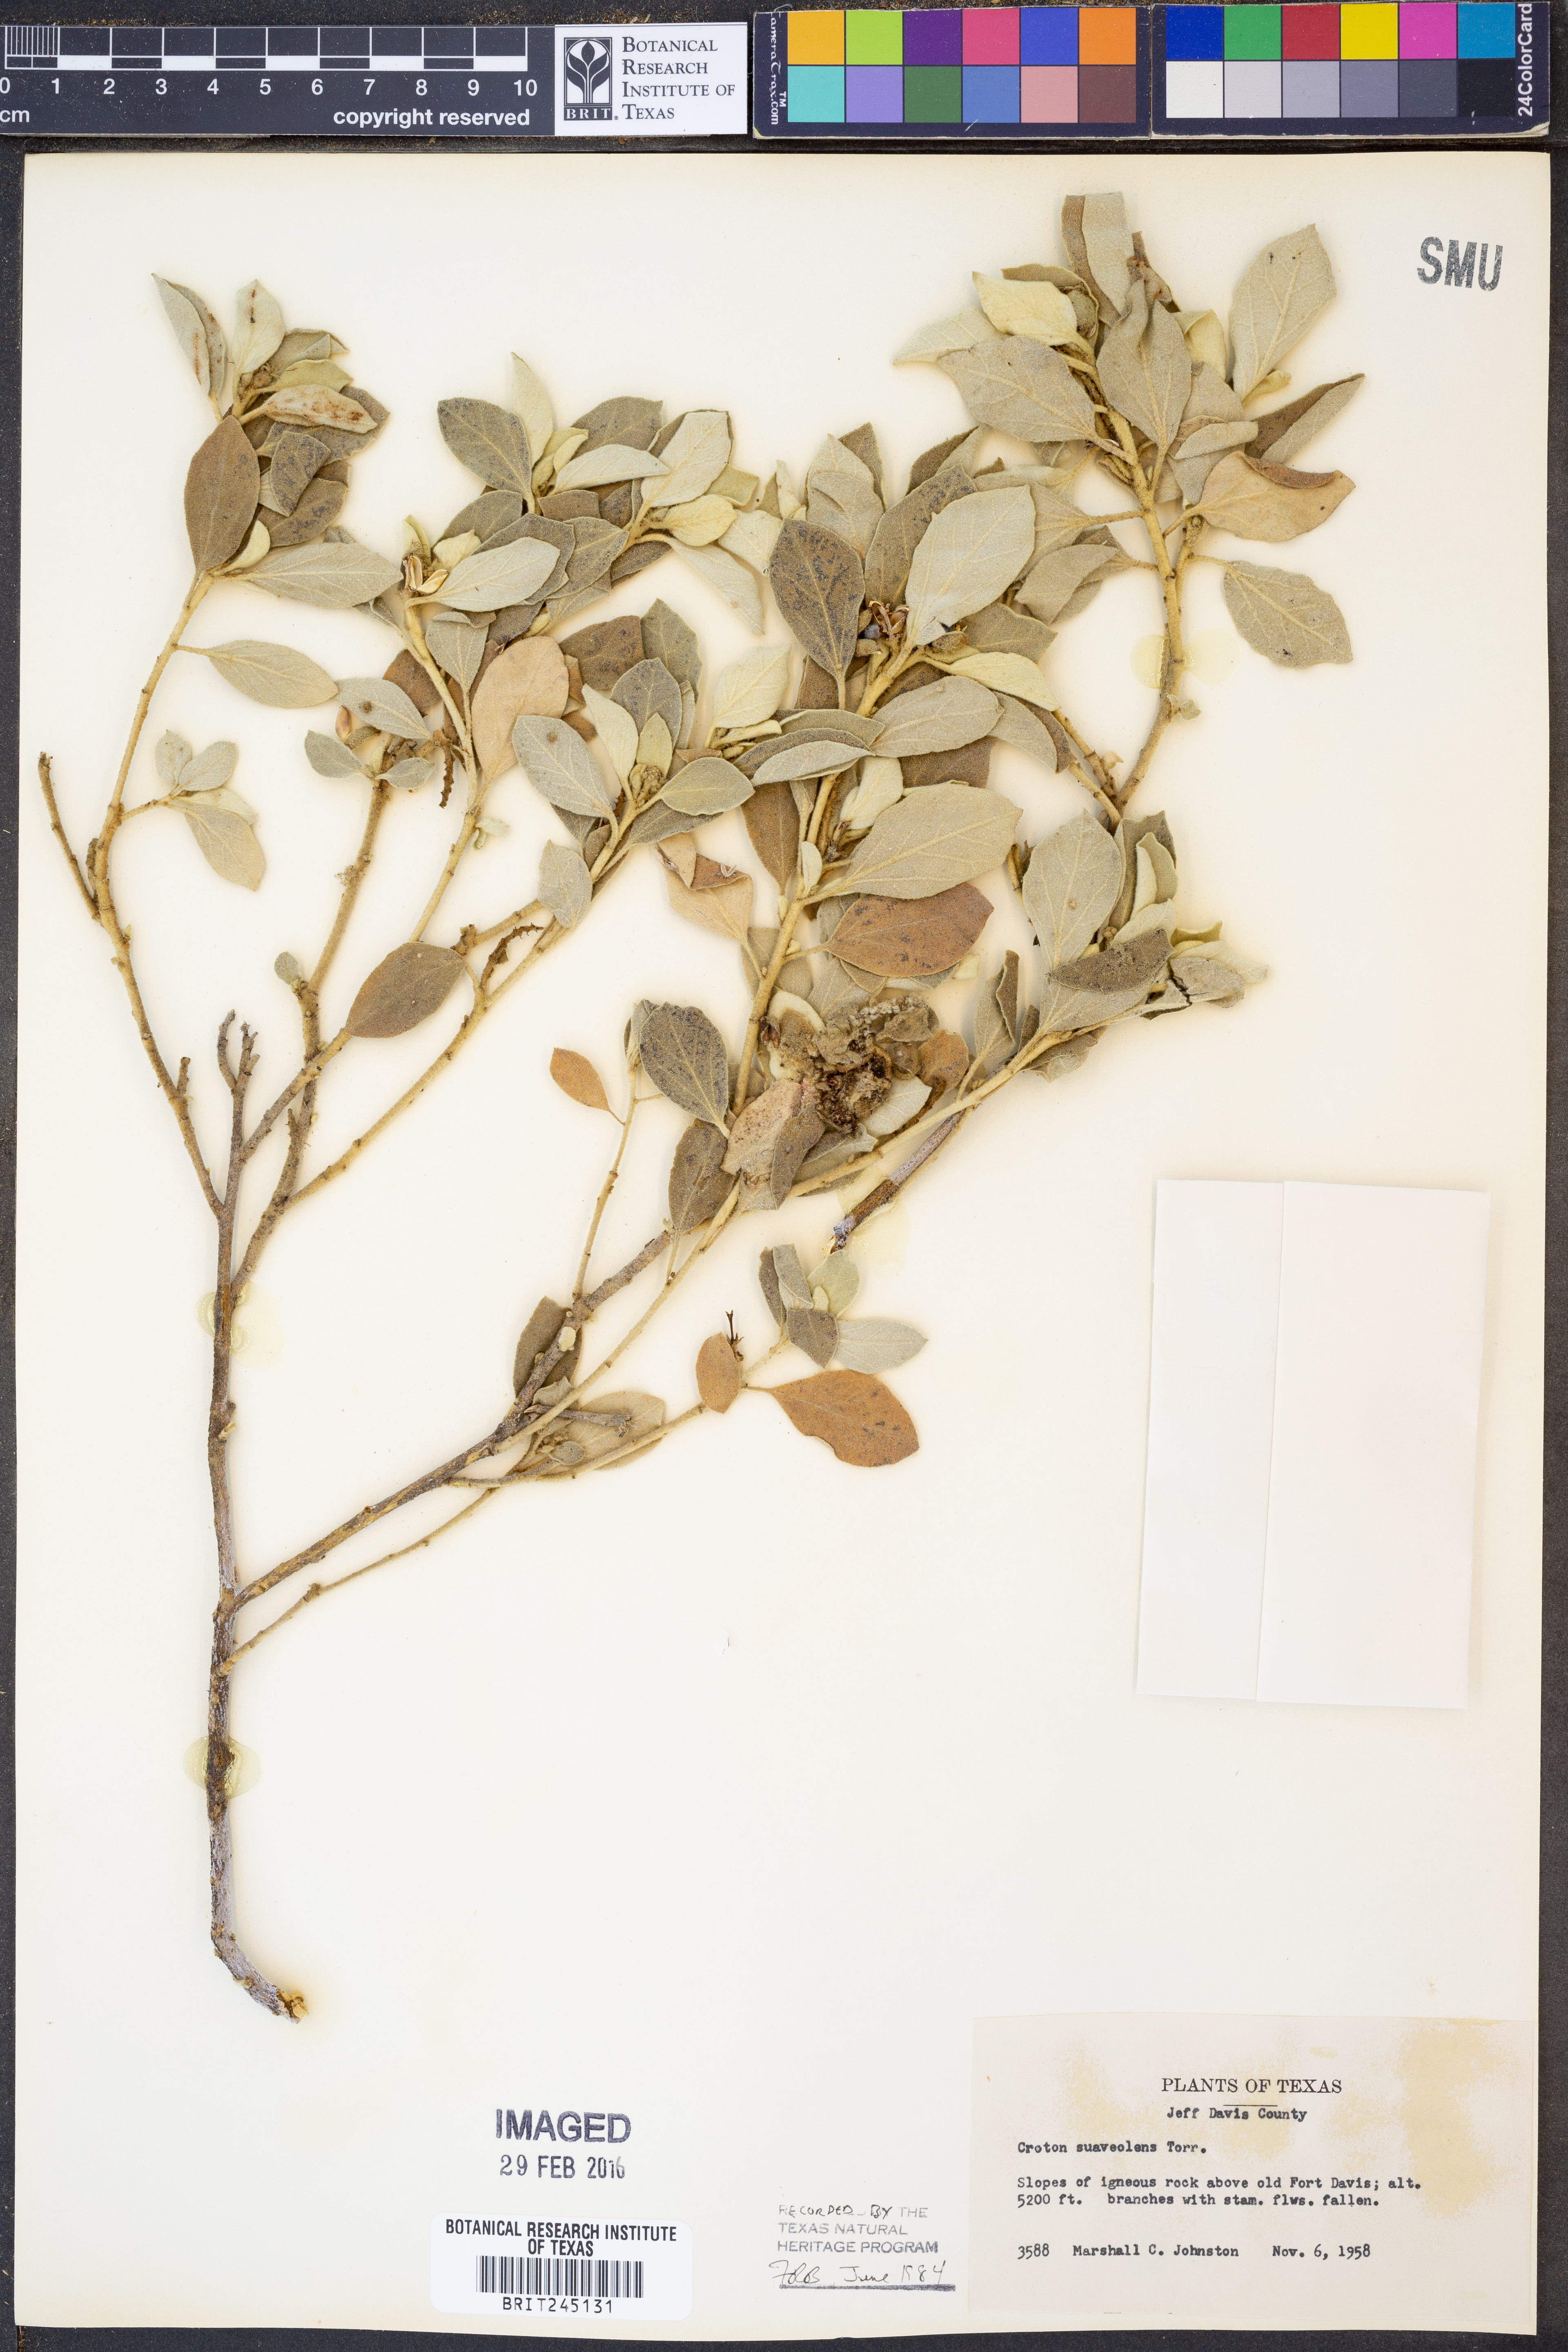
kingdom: Plantae
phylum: Tracheophyta
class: Magnoliopsida
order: Malpighiales
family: Euphorbiaceae
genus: Croton
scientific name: Croton suaveolens
